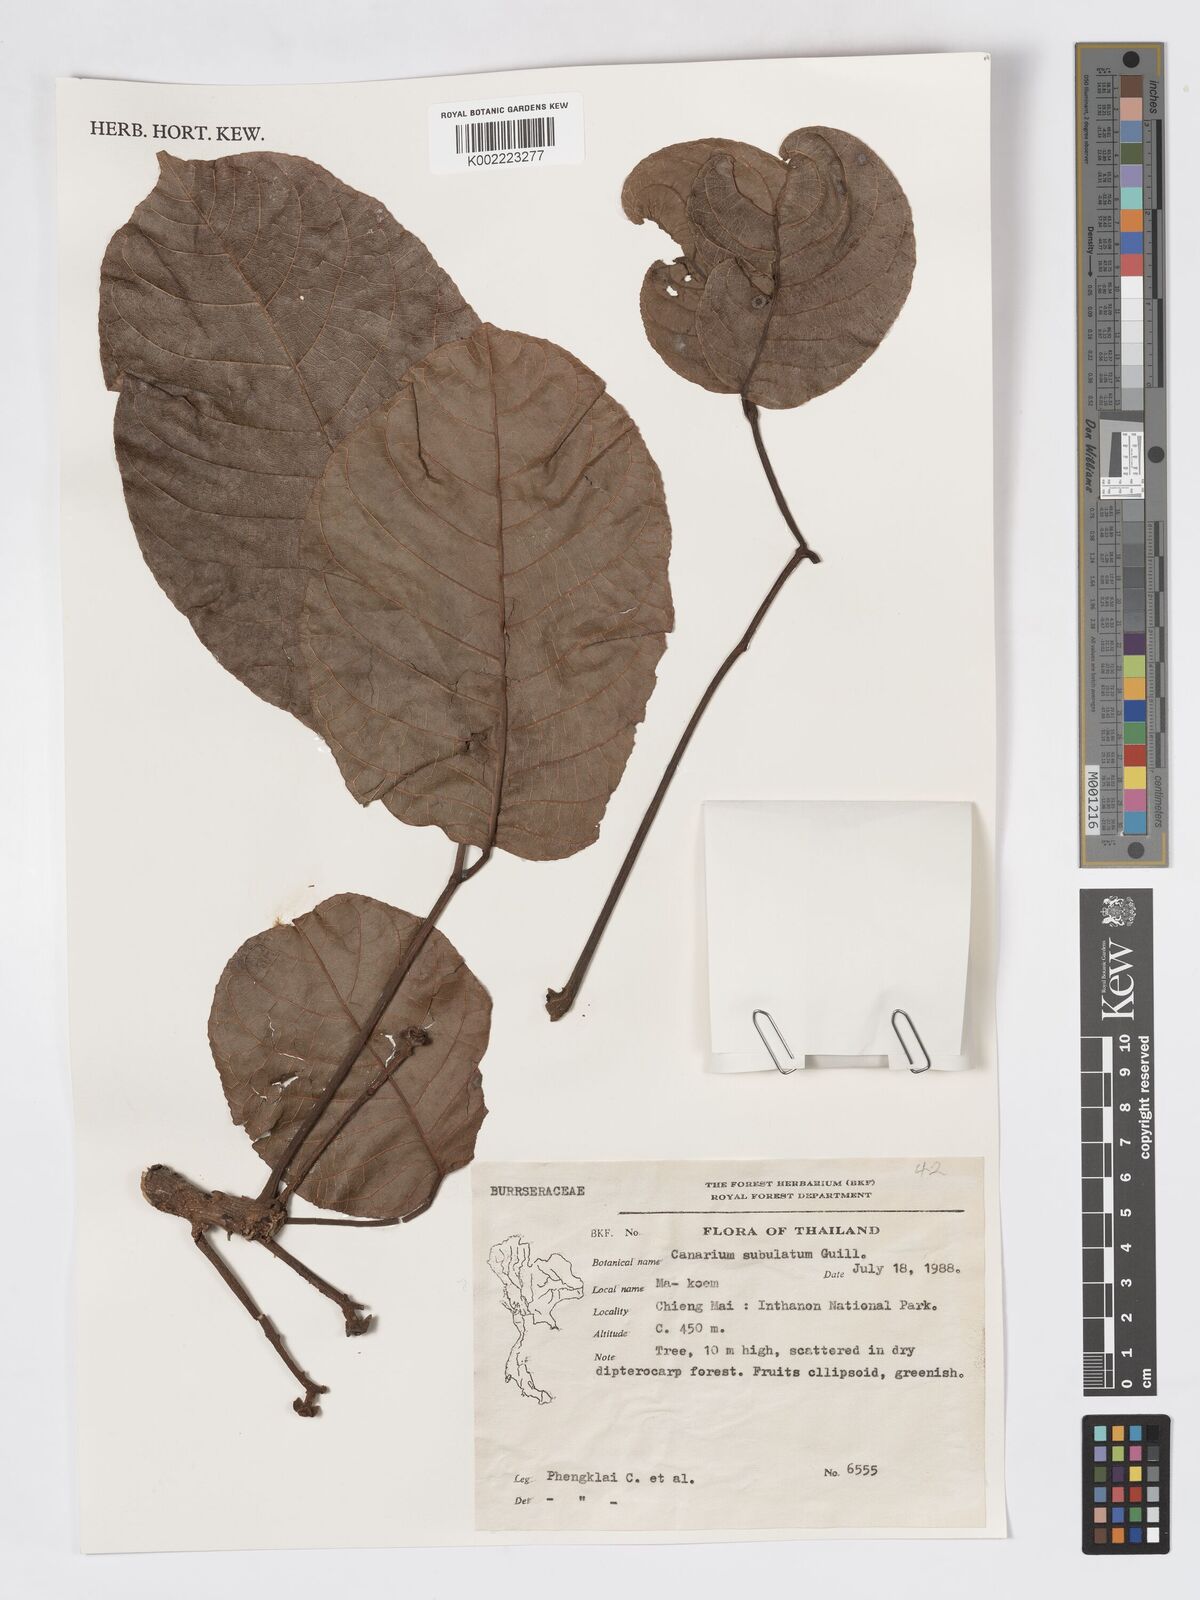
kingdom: Plantae
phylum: Tracheophyta
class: Magnoliopsida
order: Sapindales
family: Burseraceae
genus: Canarium
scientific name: Canarium subulatum
